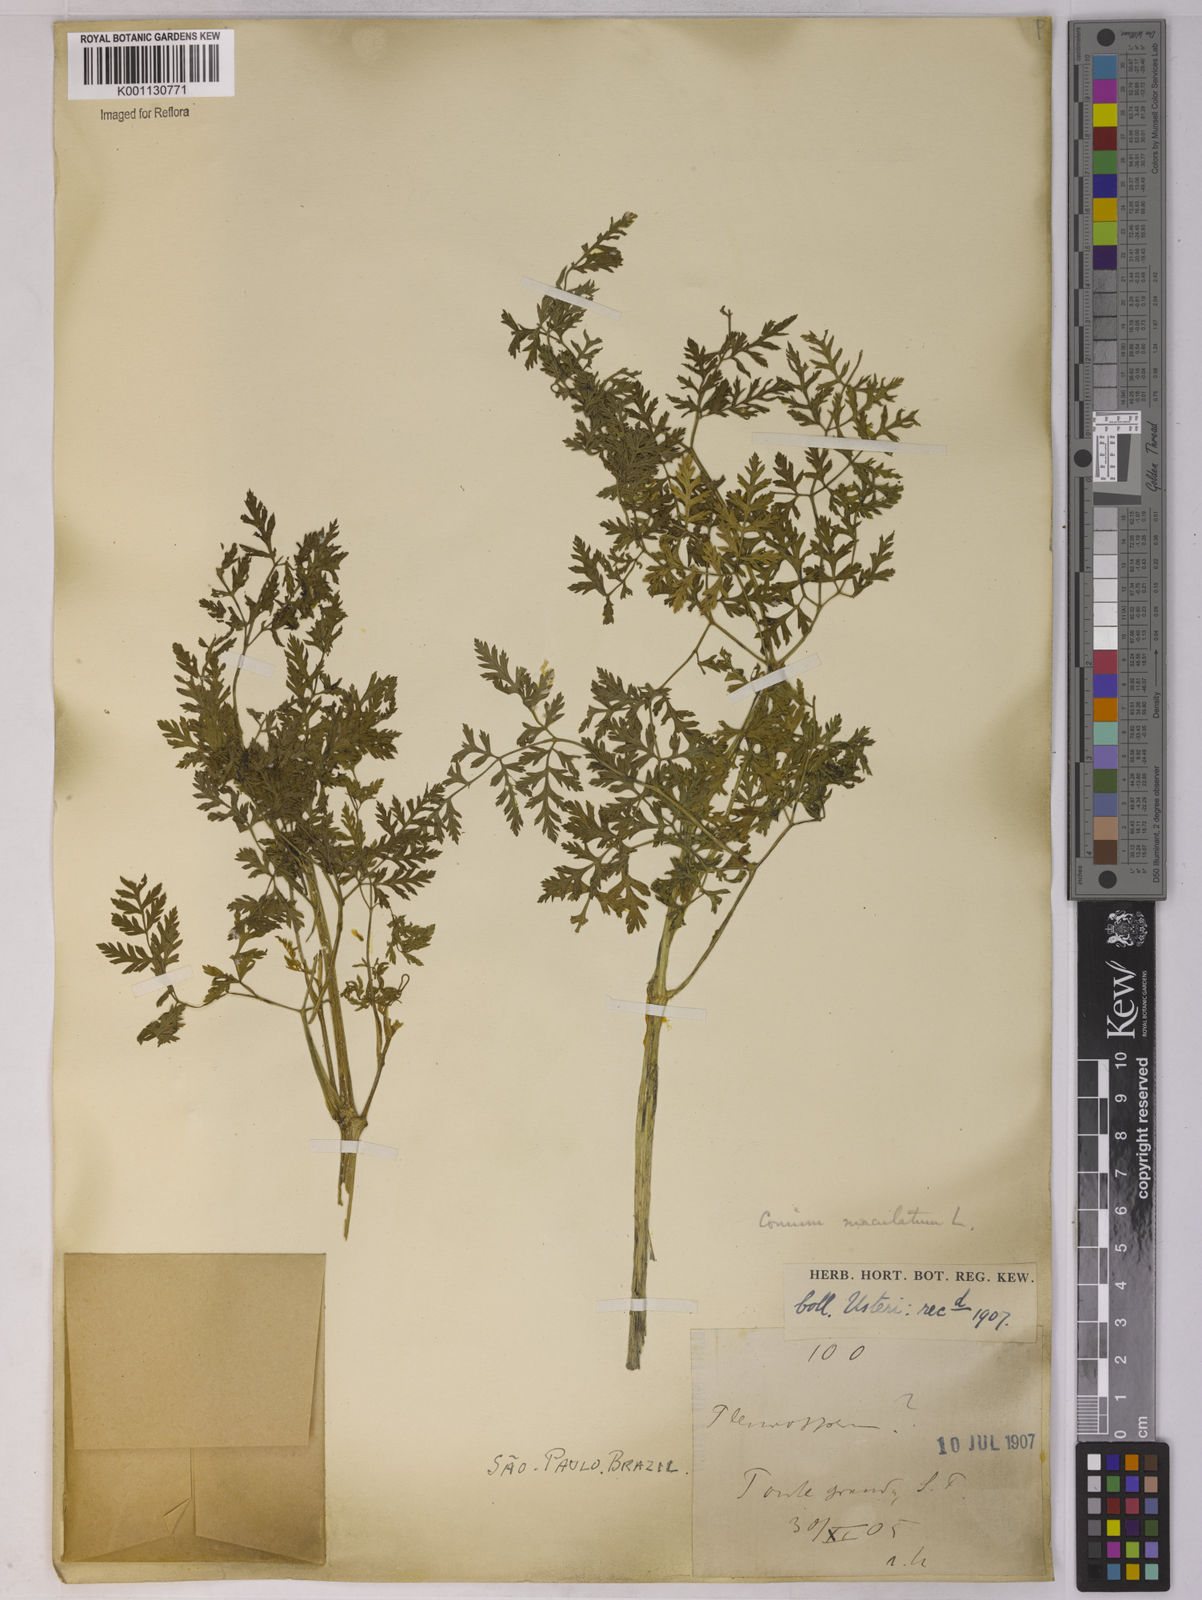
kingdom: Plantae
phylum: Tracheophyta
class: Magnoliopsida
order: Apiales
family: Apiaceae
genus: Conium
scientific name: Conium maculatum
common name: Hemlock
